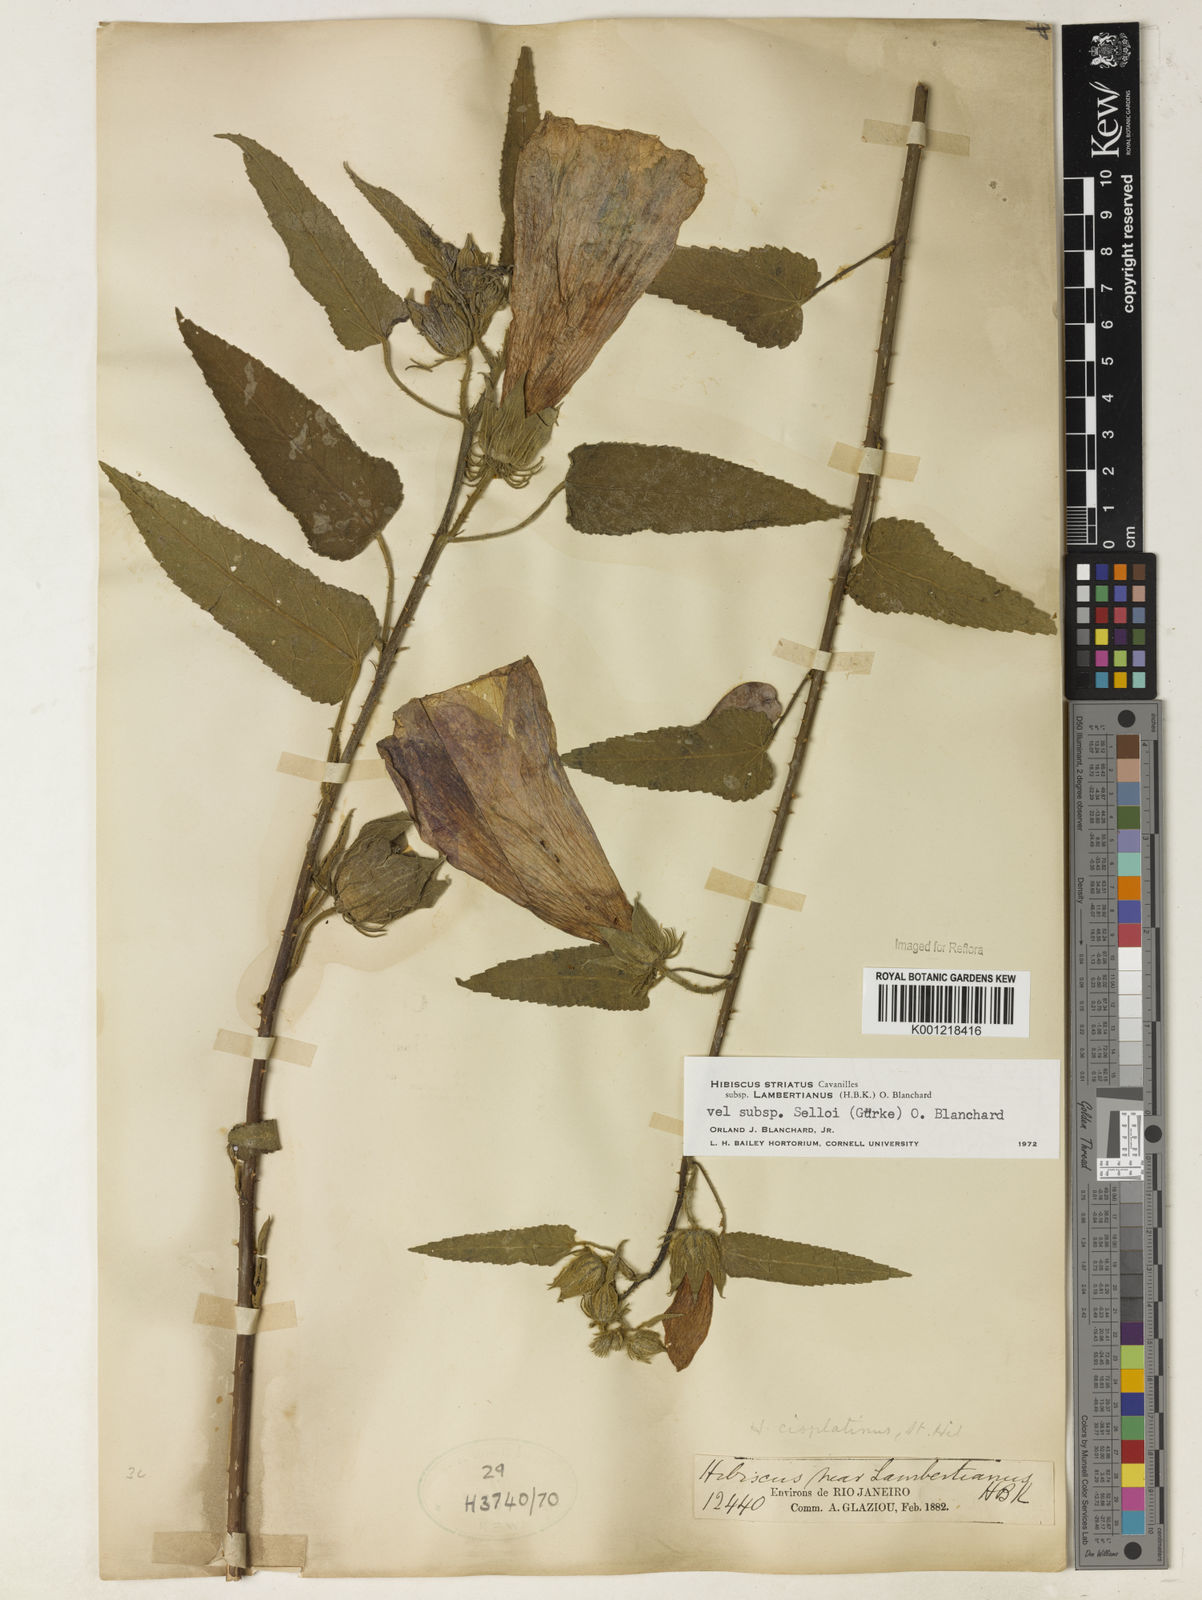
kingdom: Plantae
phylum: Tracheophyta
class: Magnoliopsida
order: Malvales
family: Malvaceae
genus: Hibiscus
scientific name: Hibiscus striatus
